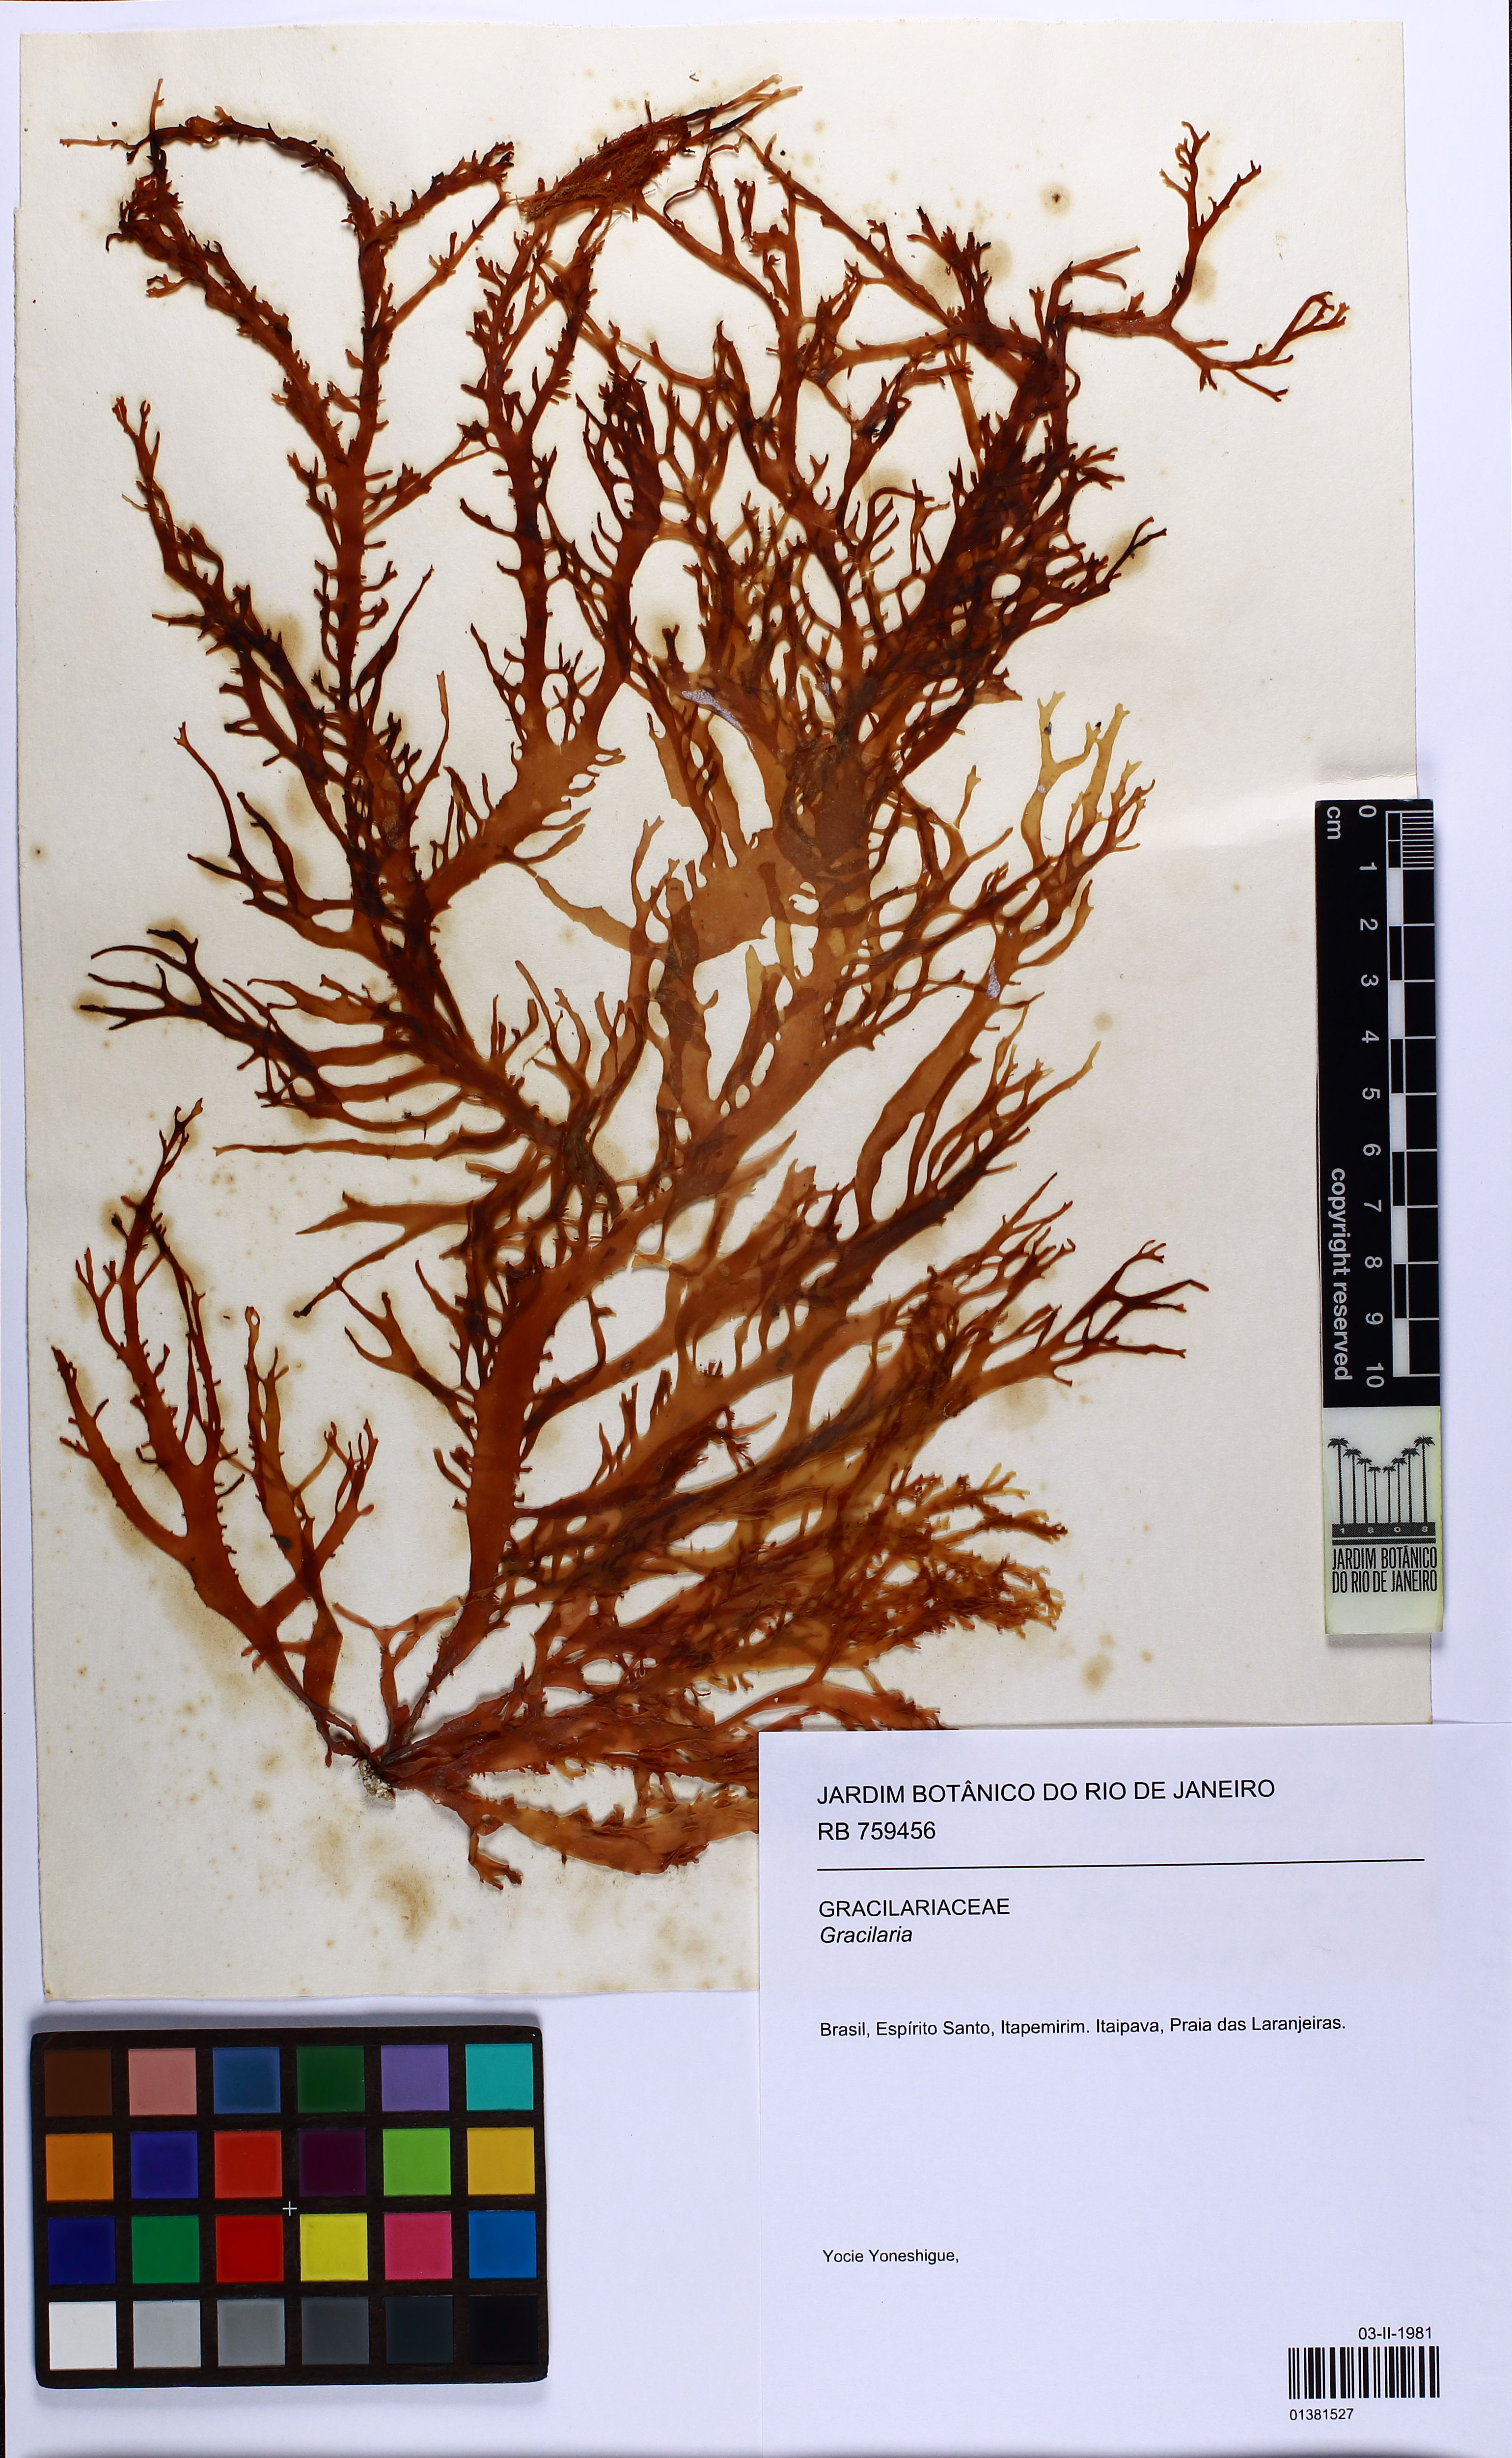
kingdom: Plantae
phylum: Rhodophyta
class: Florideophyceae
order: Gracilariales
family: Gracilariaceae
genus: Gracilaria
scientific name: Gracilaria
